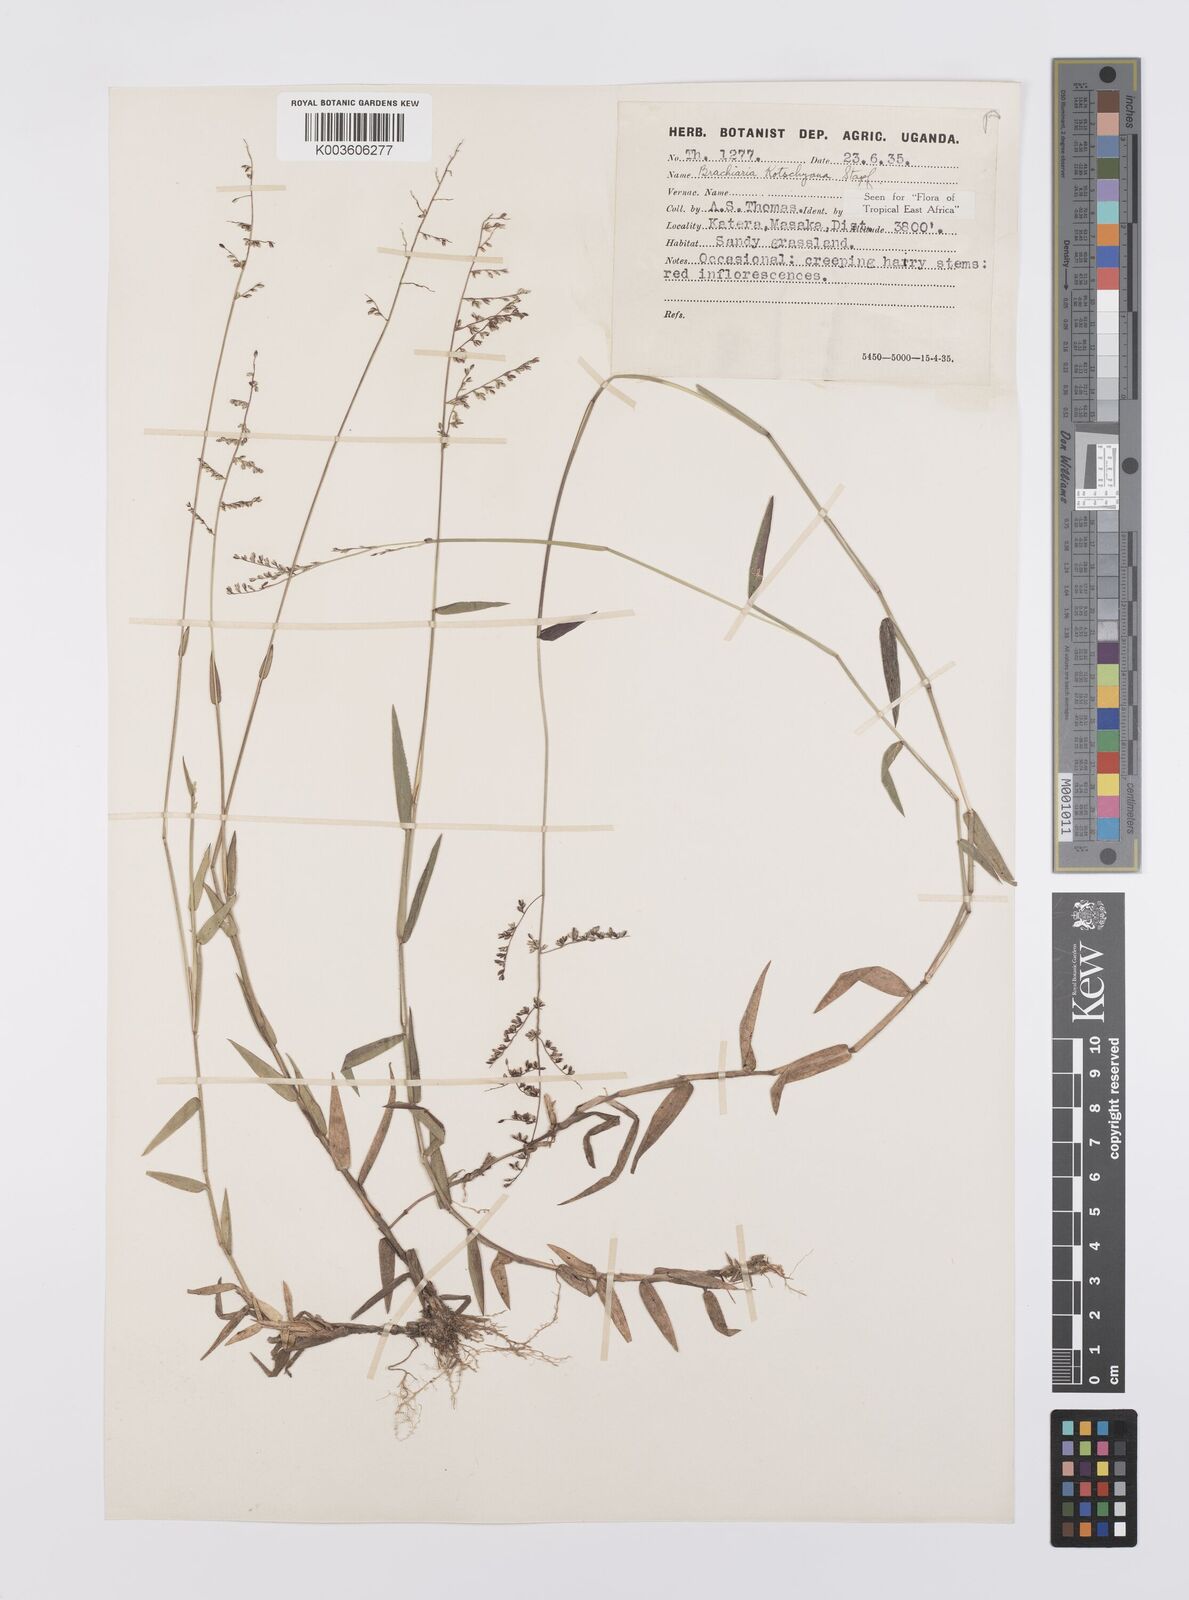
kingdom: Plantae
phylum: Tracheophyta
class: Liliopsida
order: Poales
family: Poaceae
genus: Urochloa
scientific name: Urochloa comata
